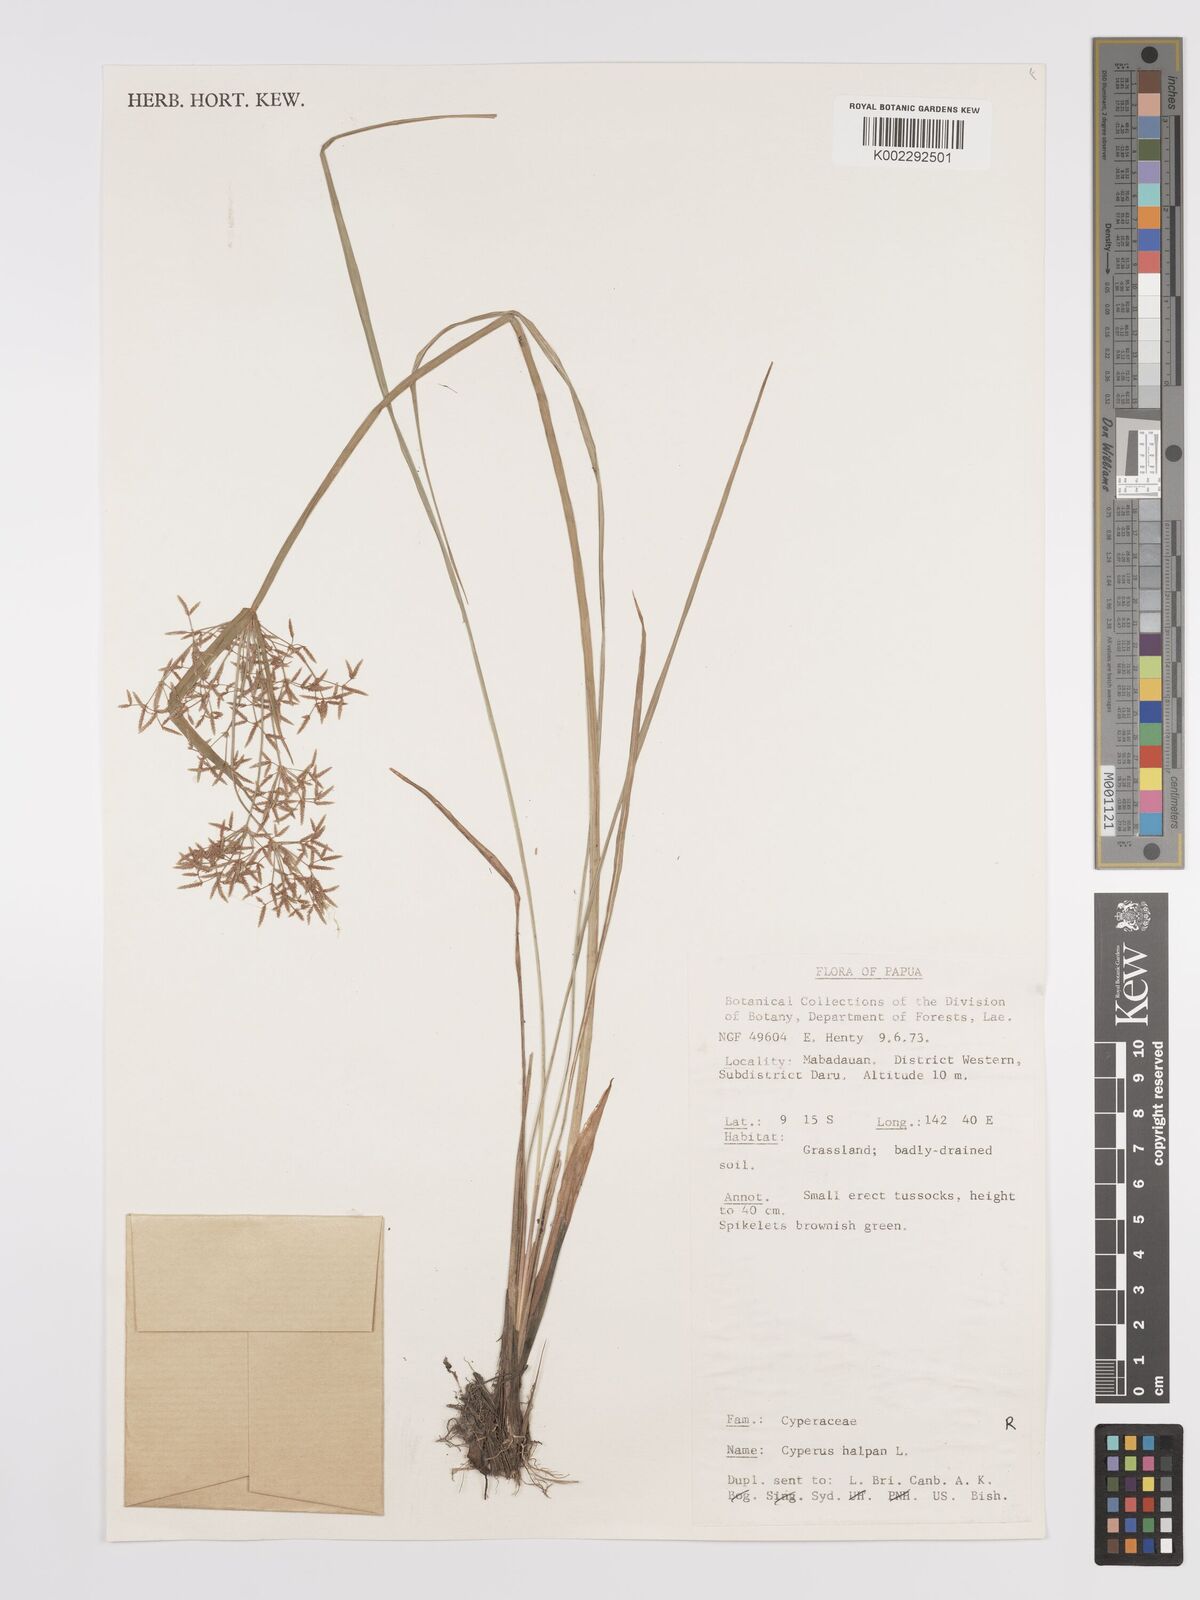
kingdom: Plantae
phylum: Tracheophyta
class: Liliopsida
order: Poales
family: Cyperaceae
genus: Cyperus
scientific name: Cyperus haspan
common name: Haspan flatsedge
